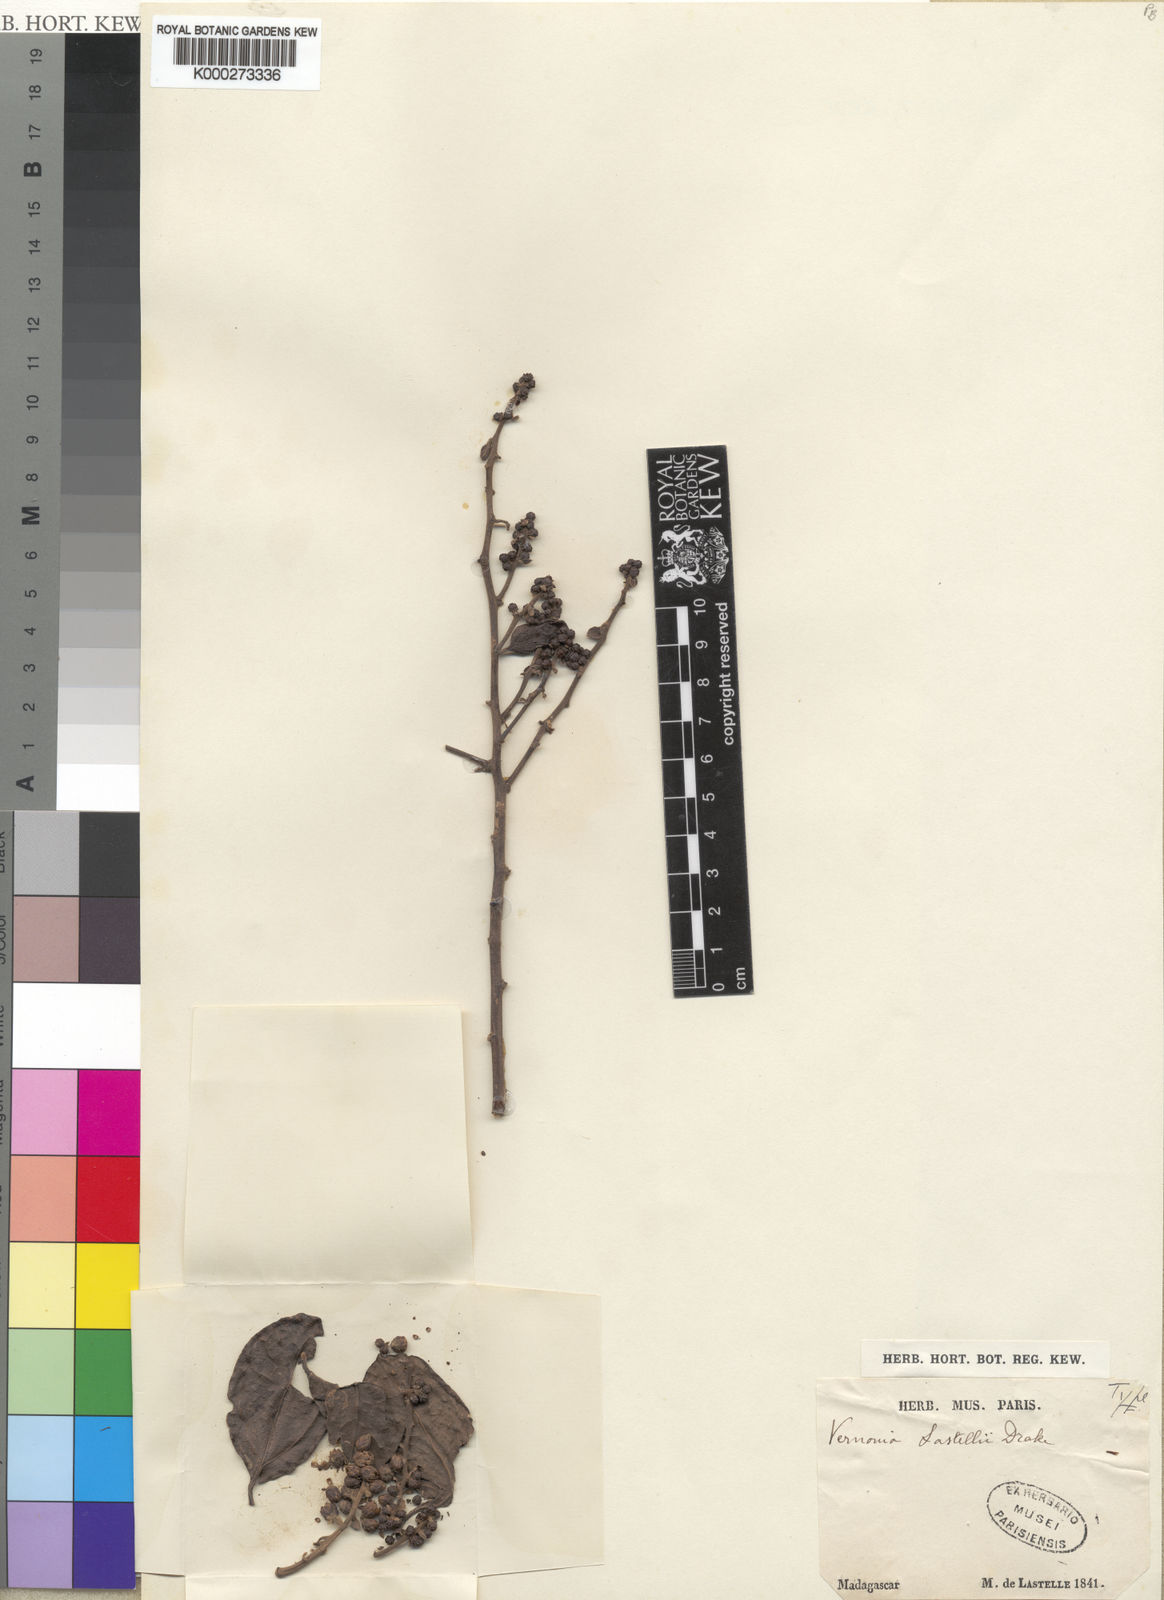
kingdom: Plantae
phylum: Tracheophyta
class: Magnoliopsida
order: Asterales
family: Asteraceae
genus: Distephanus
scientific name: Distephanus lastellei
